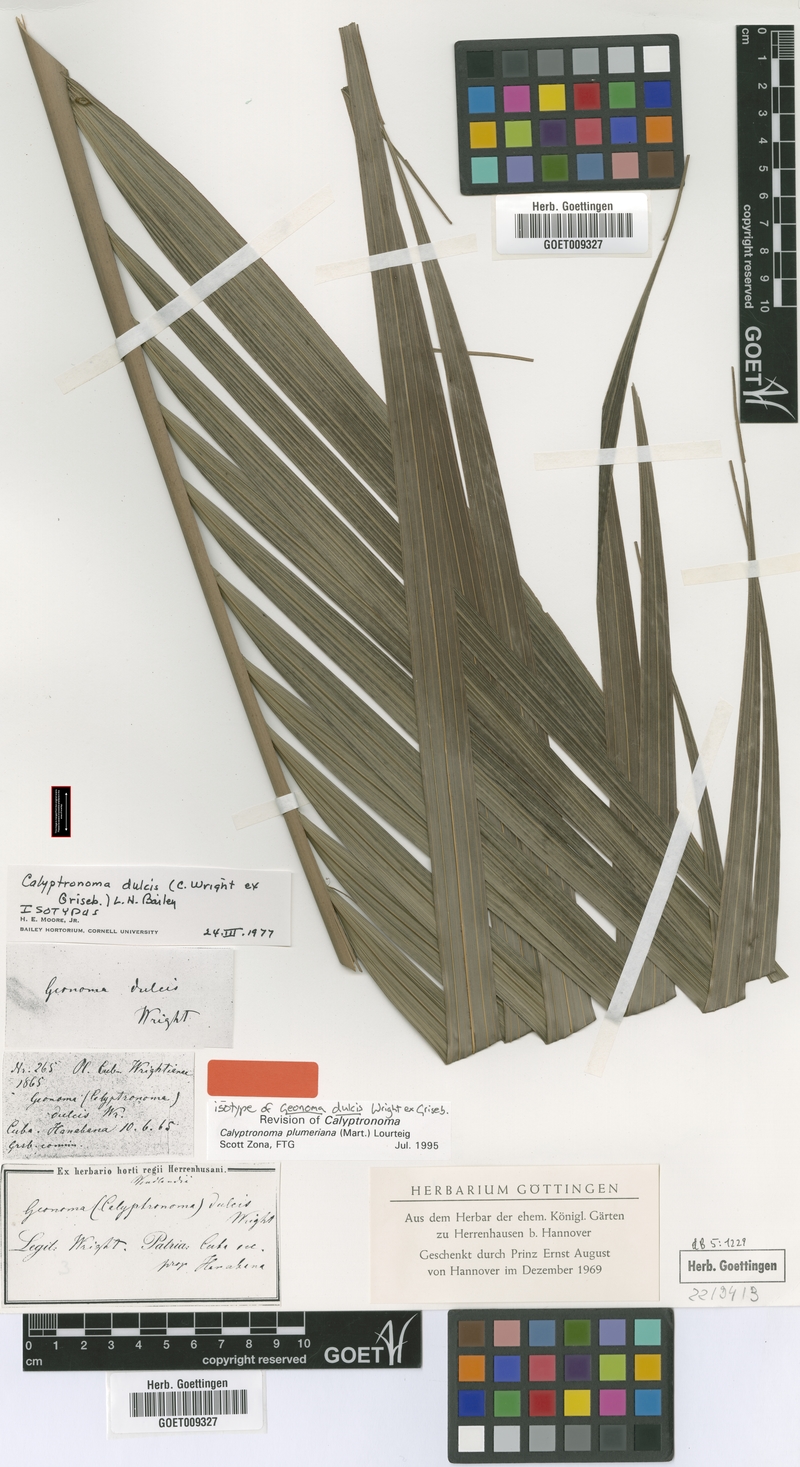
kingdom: Plantae
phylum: Tracheophyta
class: Liliopsida
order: Arecales
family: Arecaceae
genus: Calyptronoma
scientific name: Calyptronoma plumeriana
